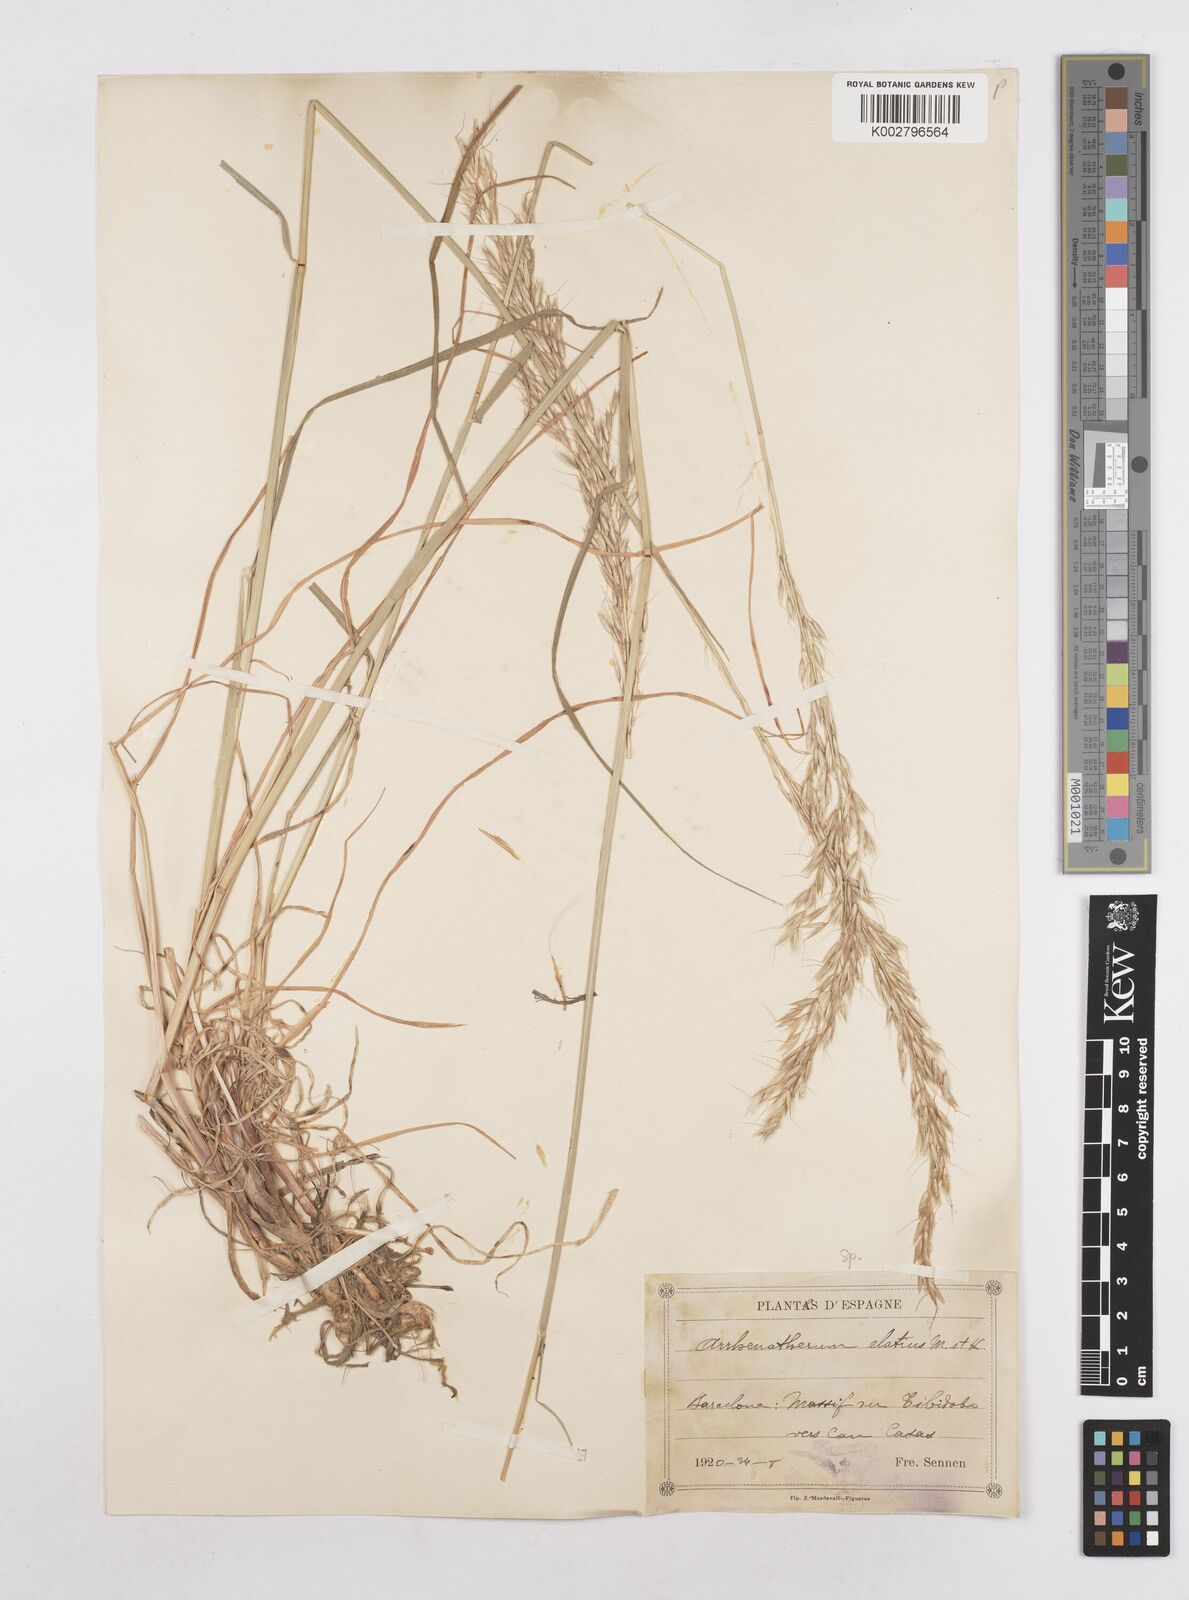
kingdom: Plantae
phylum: Tracheophyta
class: Liliopsida
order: Poales
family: Poaceae
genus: Arrhenatherum
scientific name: Arrhenatherum elatius
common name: Tall oatgrass
